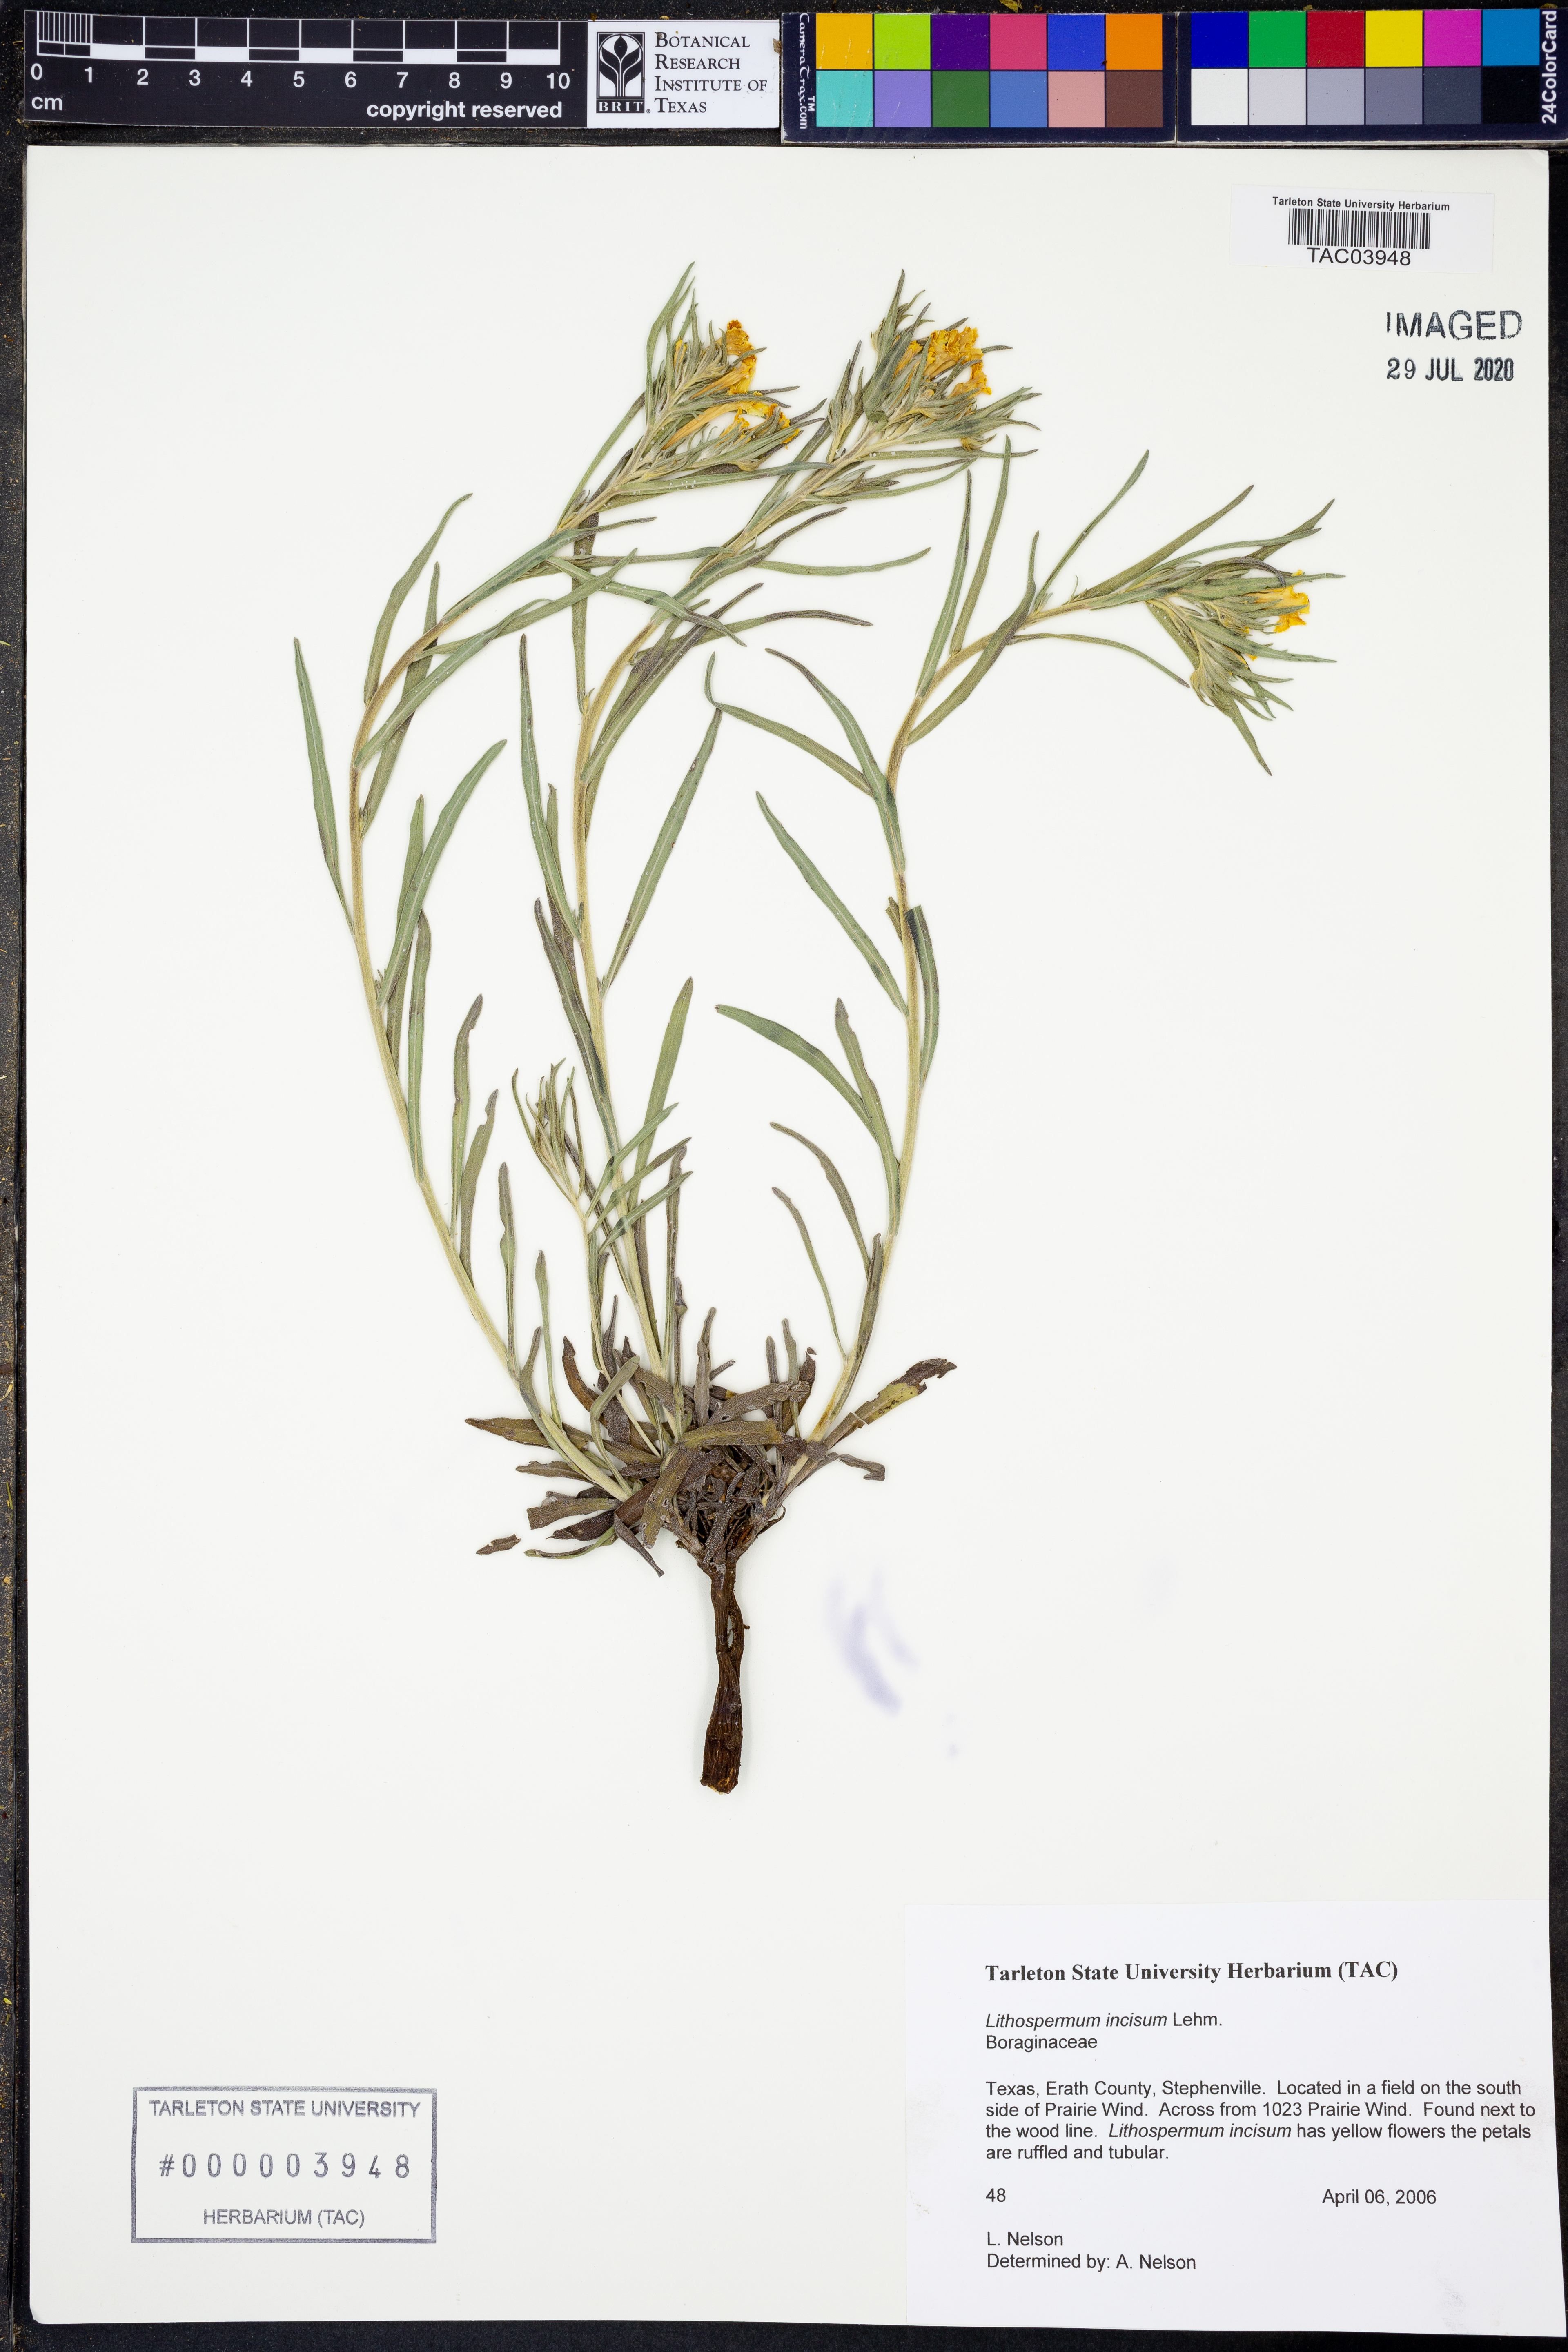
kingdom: Plantae
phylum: Tracheophyta
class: Magnoliopsida
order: Boraginales
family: Boraginaceae
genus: Lithospermum
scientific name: Lithospermum incisum
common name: Fringed gromwell
